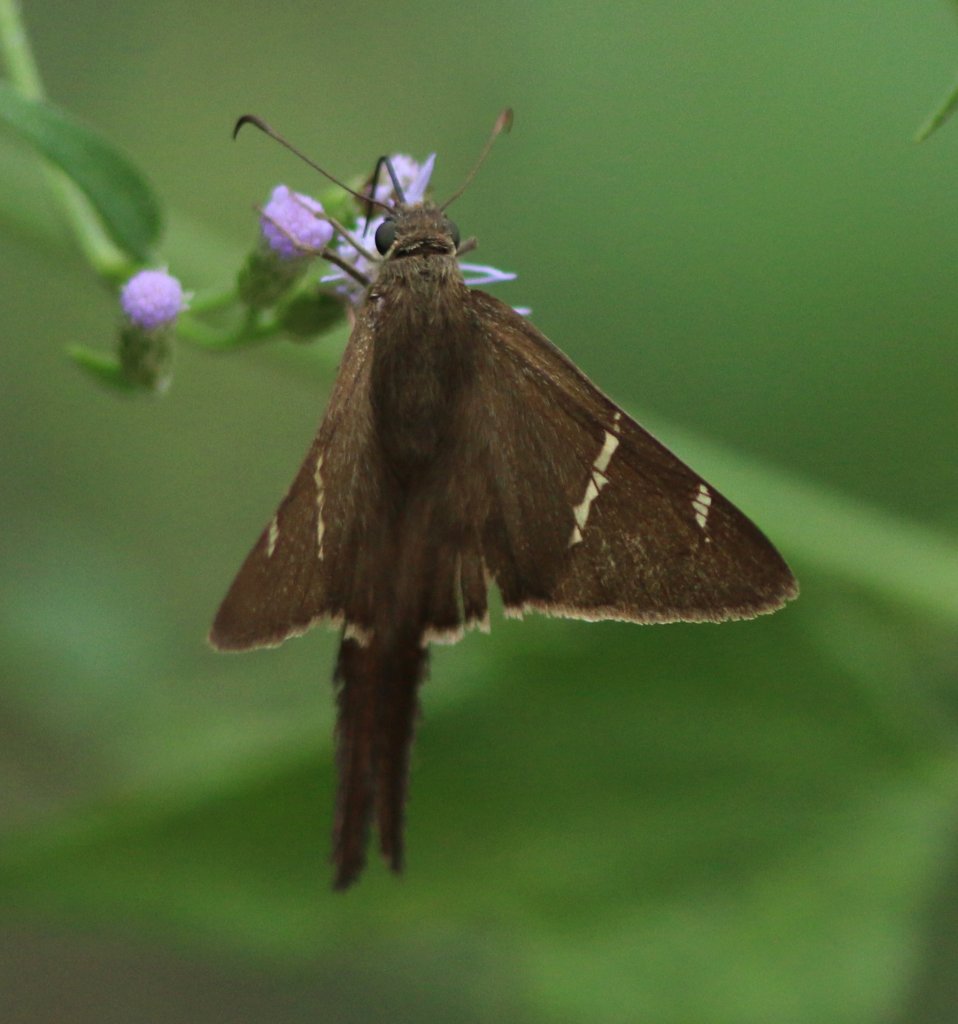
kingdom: Animalia
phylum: Arthropoda
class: Insecta
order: Lepidoptera
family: Hesperiidae
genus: Urbanus
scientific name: Urbanus procne
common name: Brown Longtail
